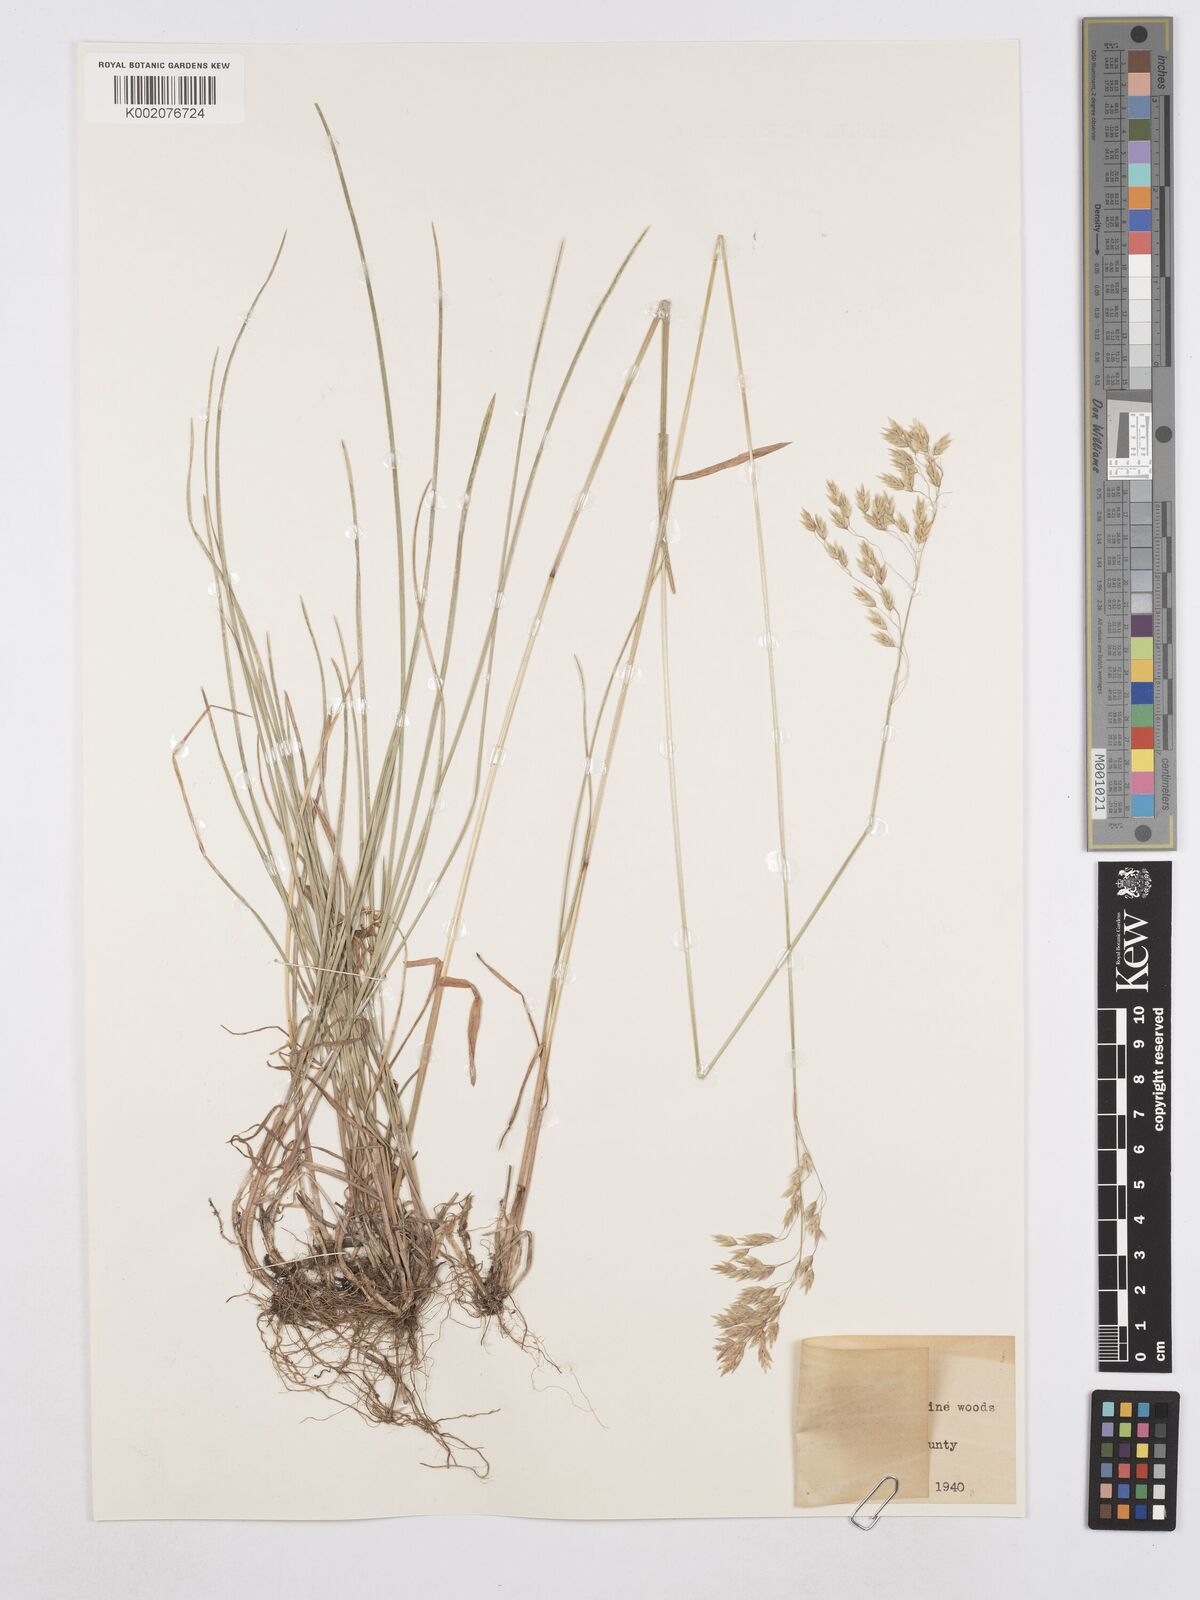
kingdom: Plantae
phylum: Tracheophyta
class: Liliopsida
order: Poales
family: Poaceae
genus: Poa
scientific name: Poa nervosa
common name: Hooker's bluegrass
